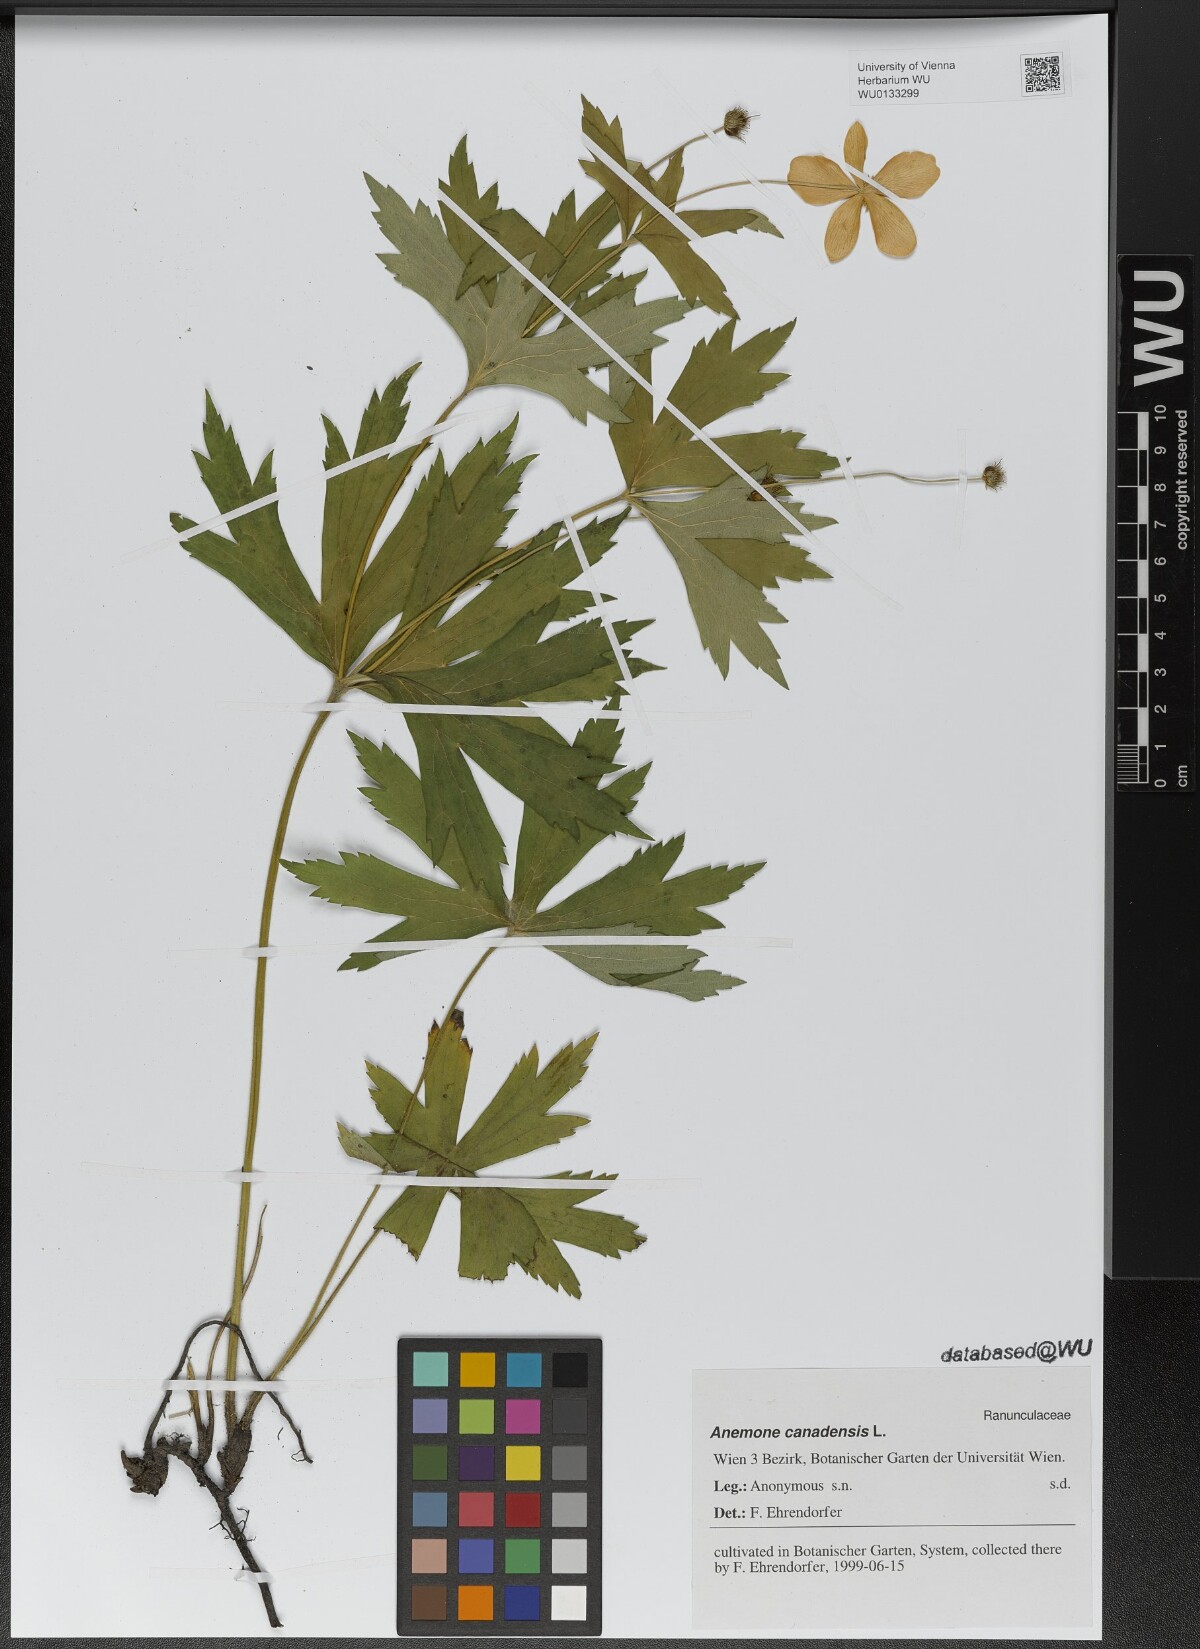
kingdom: Plantae
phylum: Tracheophyta
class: Magnoliopsida
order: Ranunculales
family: Ranunculaceae
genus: Anemonastrum
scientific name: Anemonastrum canadense
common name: Canada anemone
